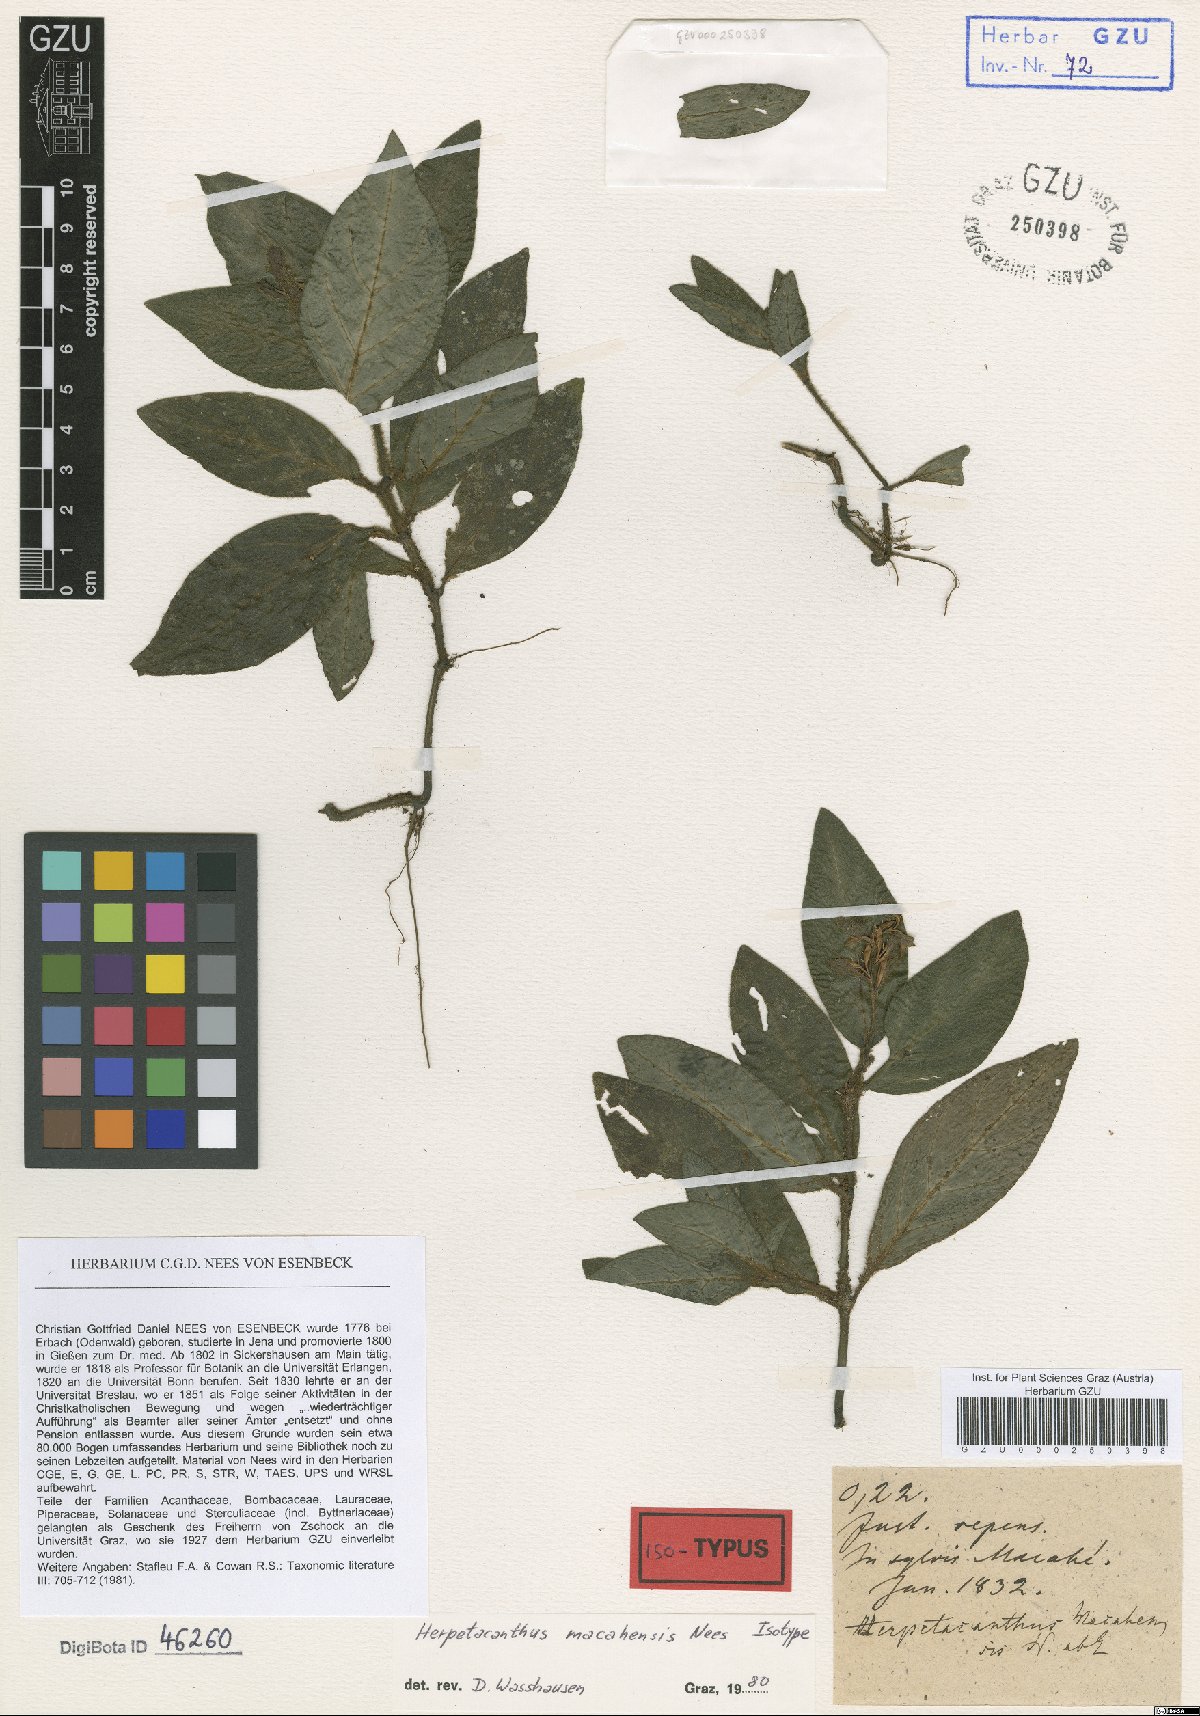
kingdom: Plantae
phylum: Tracheophyta
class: Magnoliopsida
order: Lamiales
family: Acanthaceae
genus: Herpetacanthus
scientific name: Herpetacanthus macahensis
